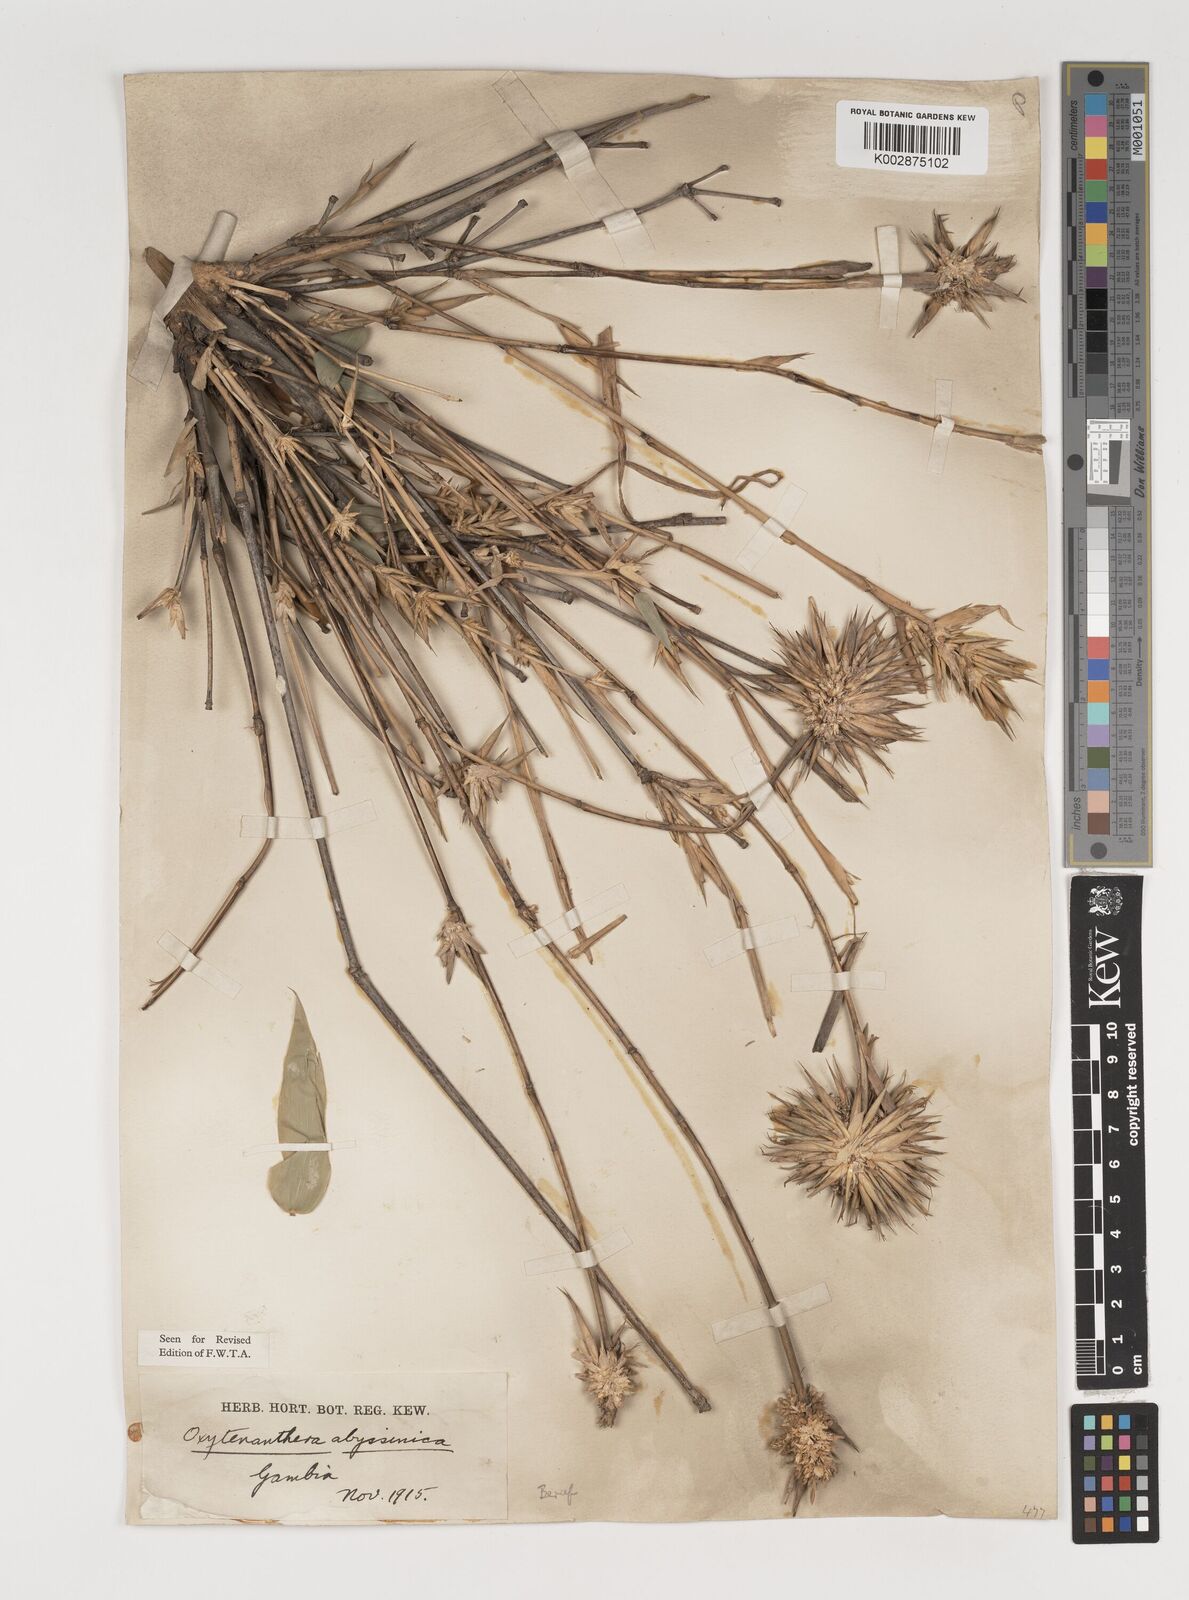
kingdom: Plantae
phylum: Tracheophyta
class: Liliopsida
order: Poales
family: Poaceae
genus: Oxytenanthera
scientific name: Oxytenanthera abyssinica
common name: Wine bamboo
